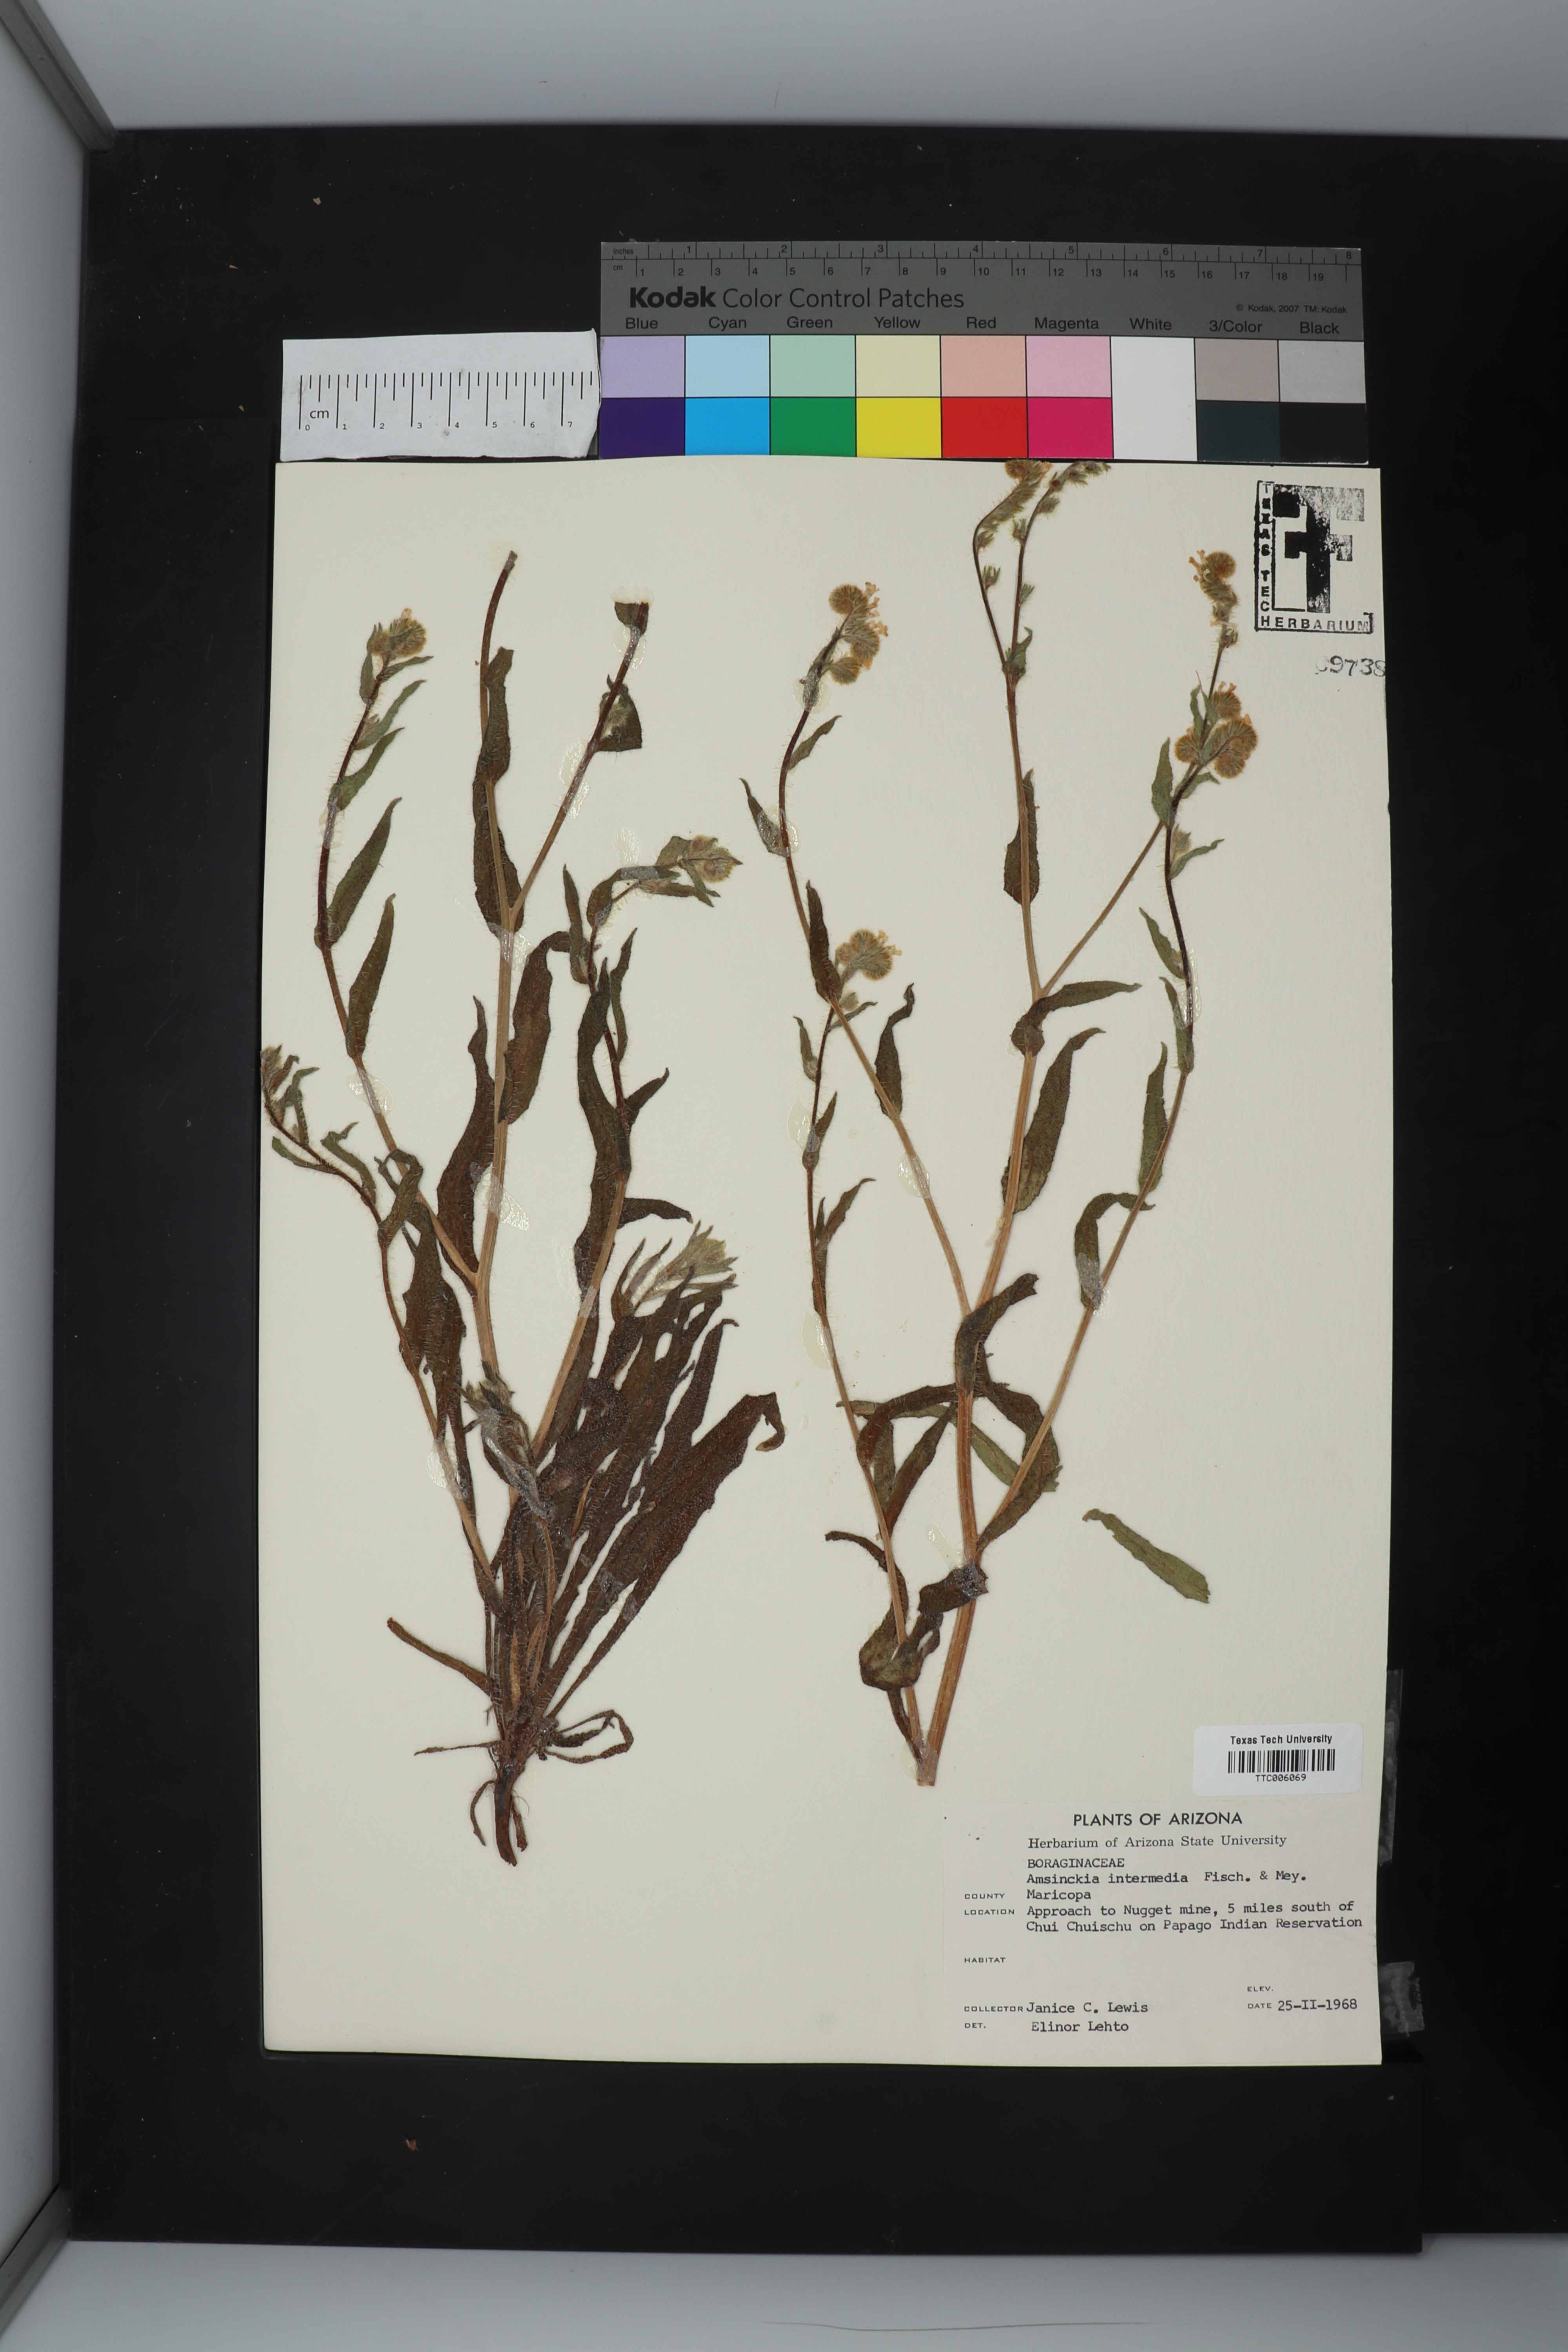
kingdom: Plantae
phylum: Tracheophyta
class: Magnoliopsida
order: Boraginales
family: Boraginaceae
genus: Amsinckia
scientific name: Amsinckia menziesii
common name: Menzies' fiddleneck
